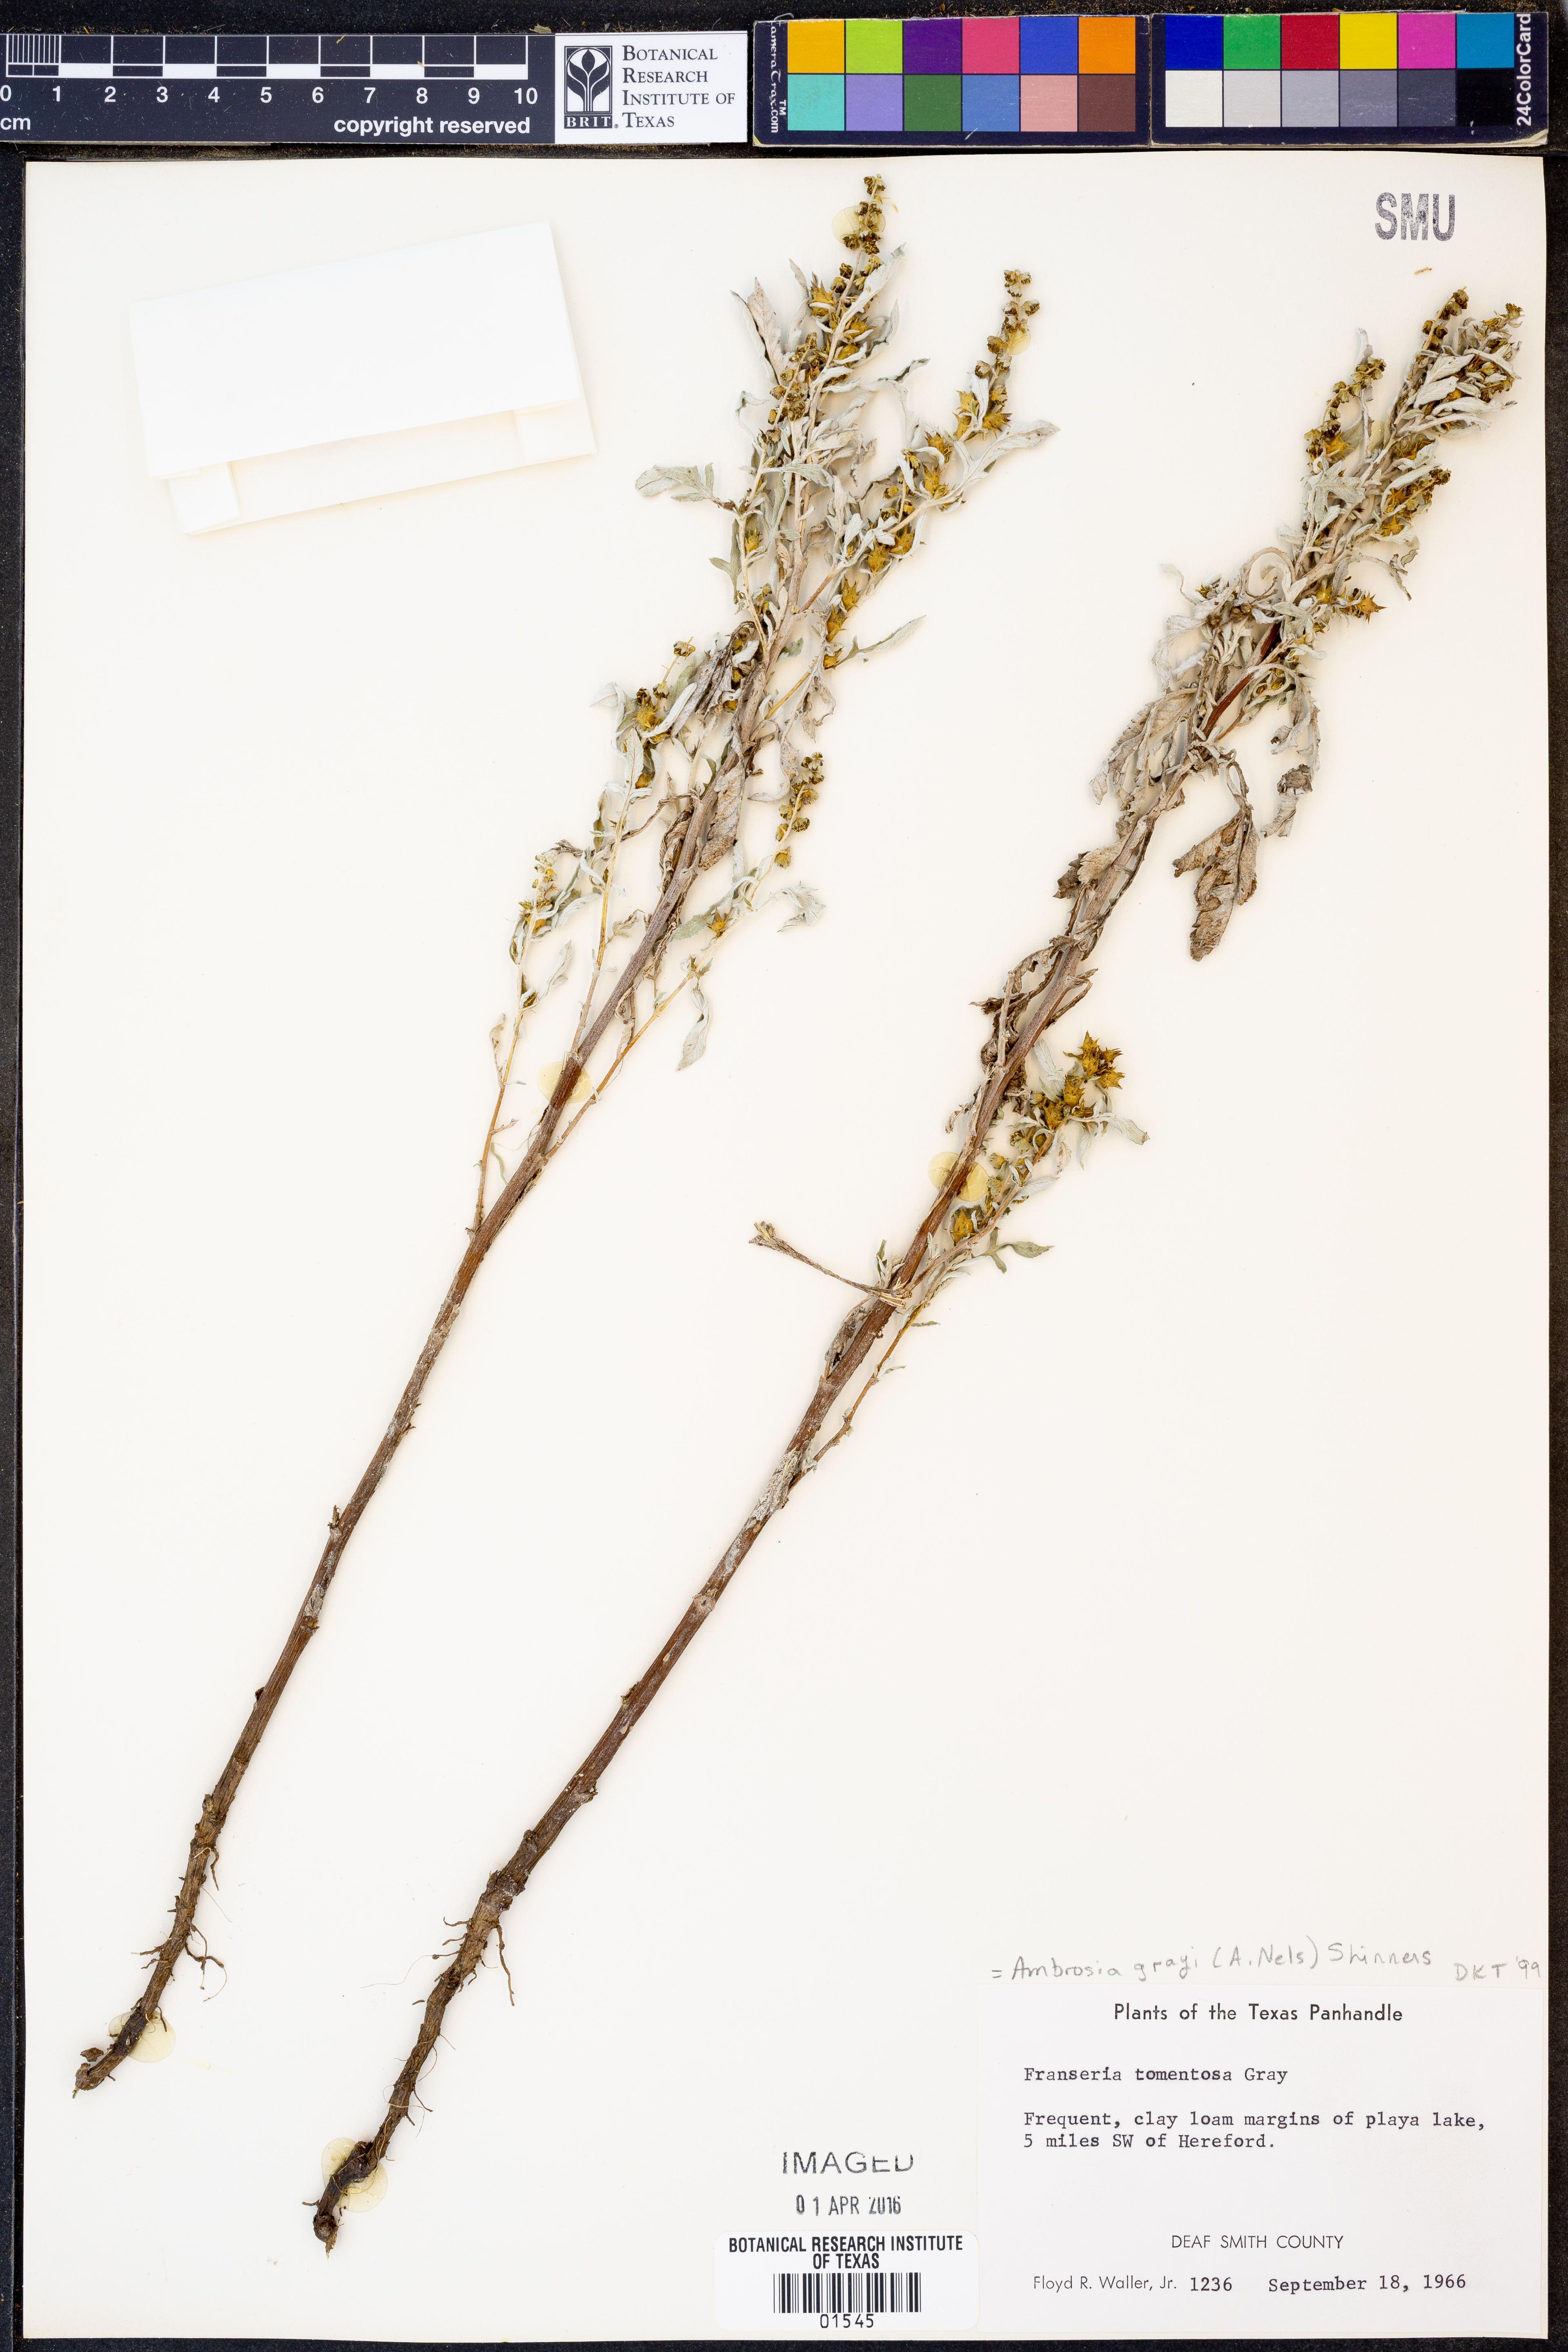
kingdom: Plantae
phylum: Tracheophyta
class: Magnoliopsida
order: Asterales
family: Asteraceae
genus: Ambrosia
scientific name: Ambrosia grayi
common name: Bur ragweed
